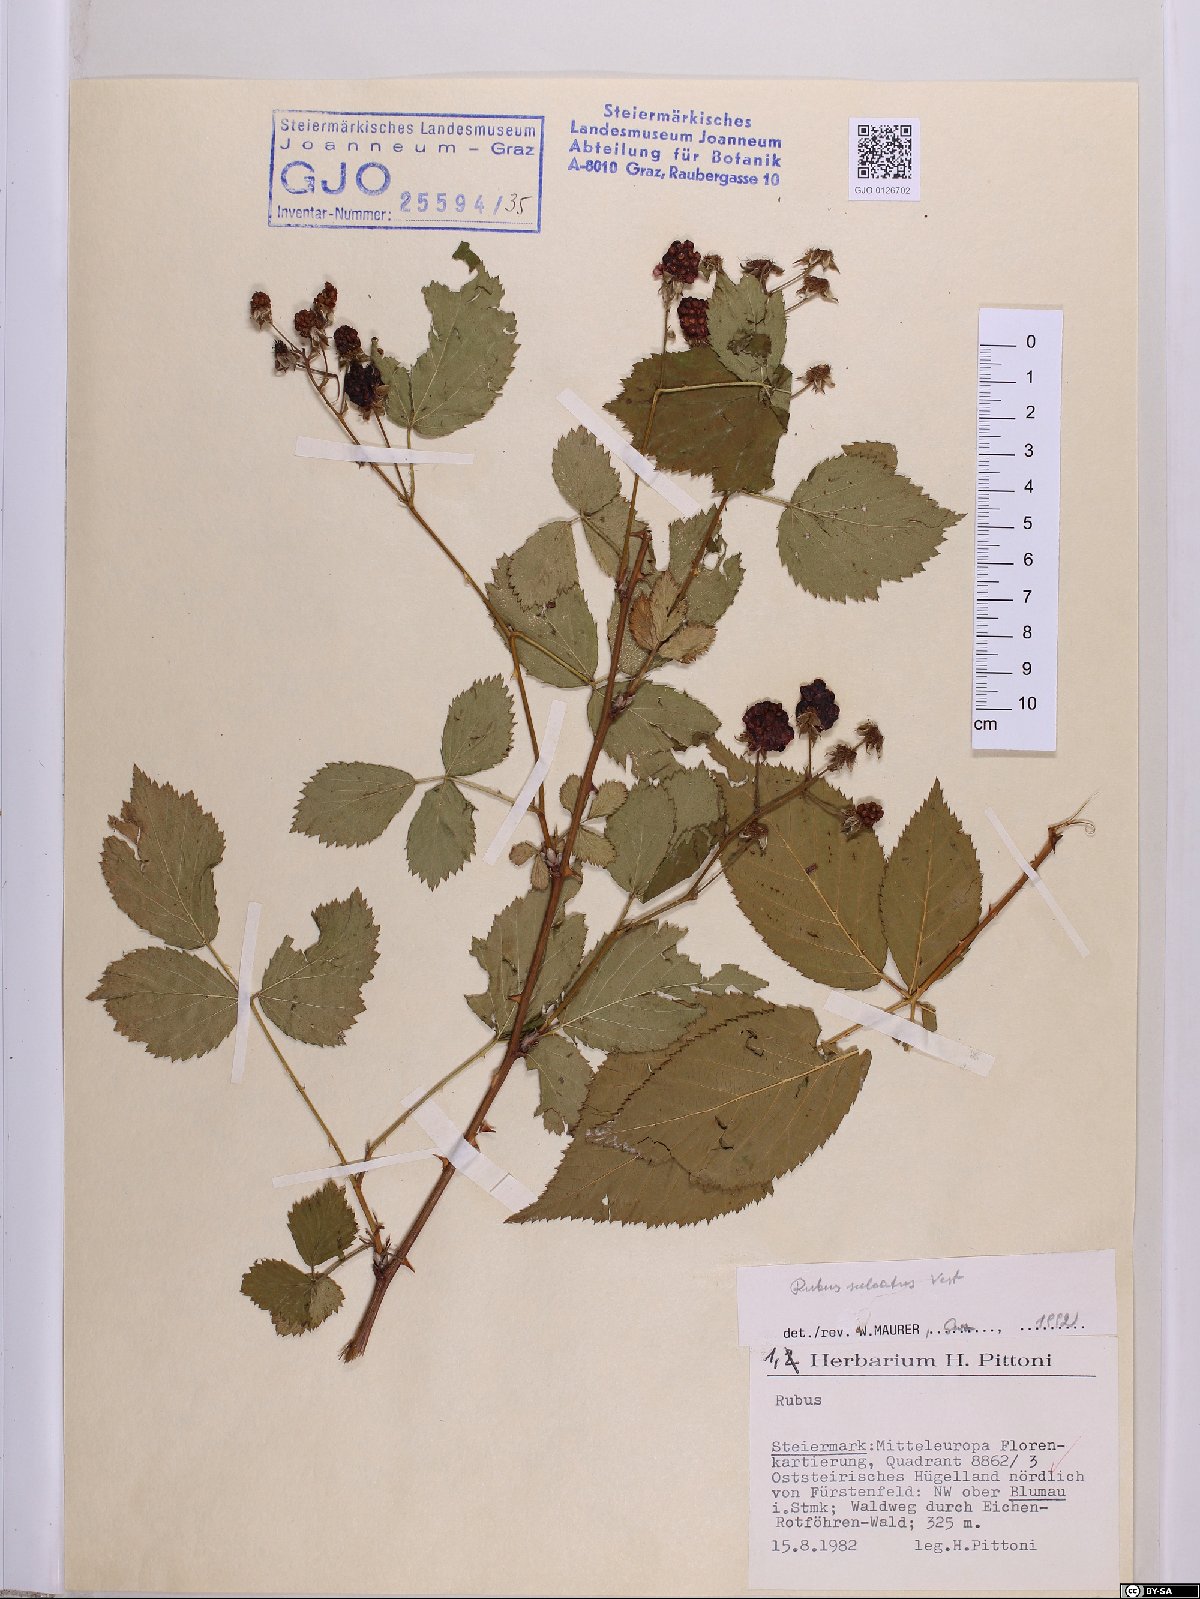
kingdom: Plantae
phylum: Tracheophyta
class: Magnoliopsida
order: Rosales
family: Rosaceae
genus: Rubus
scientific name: Rubus sulcatus
